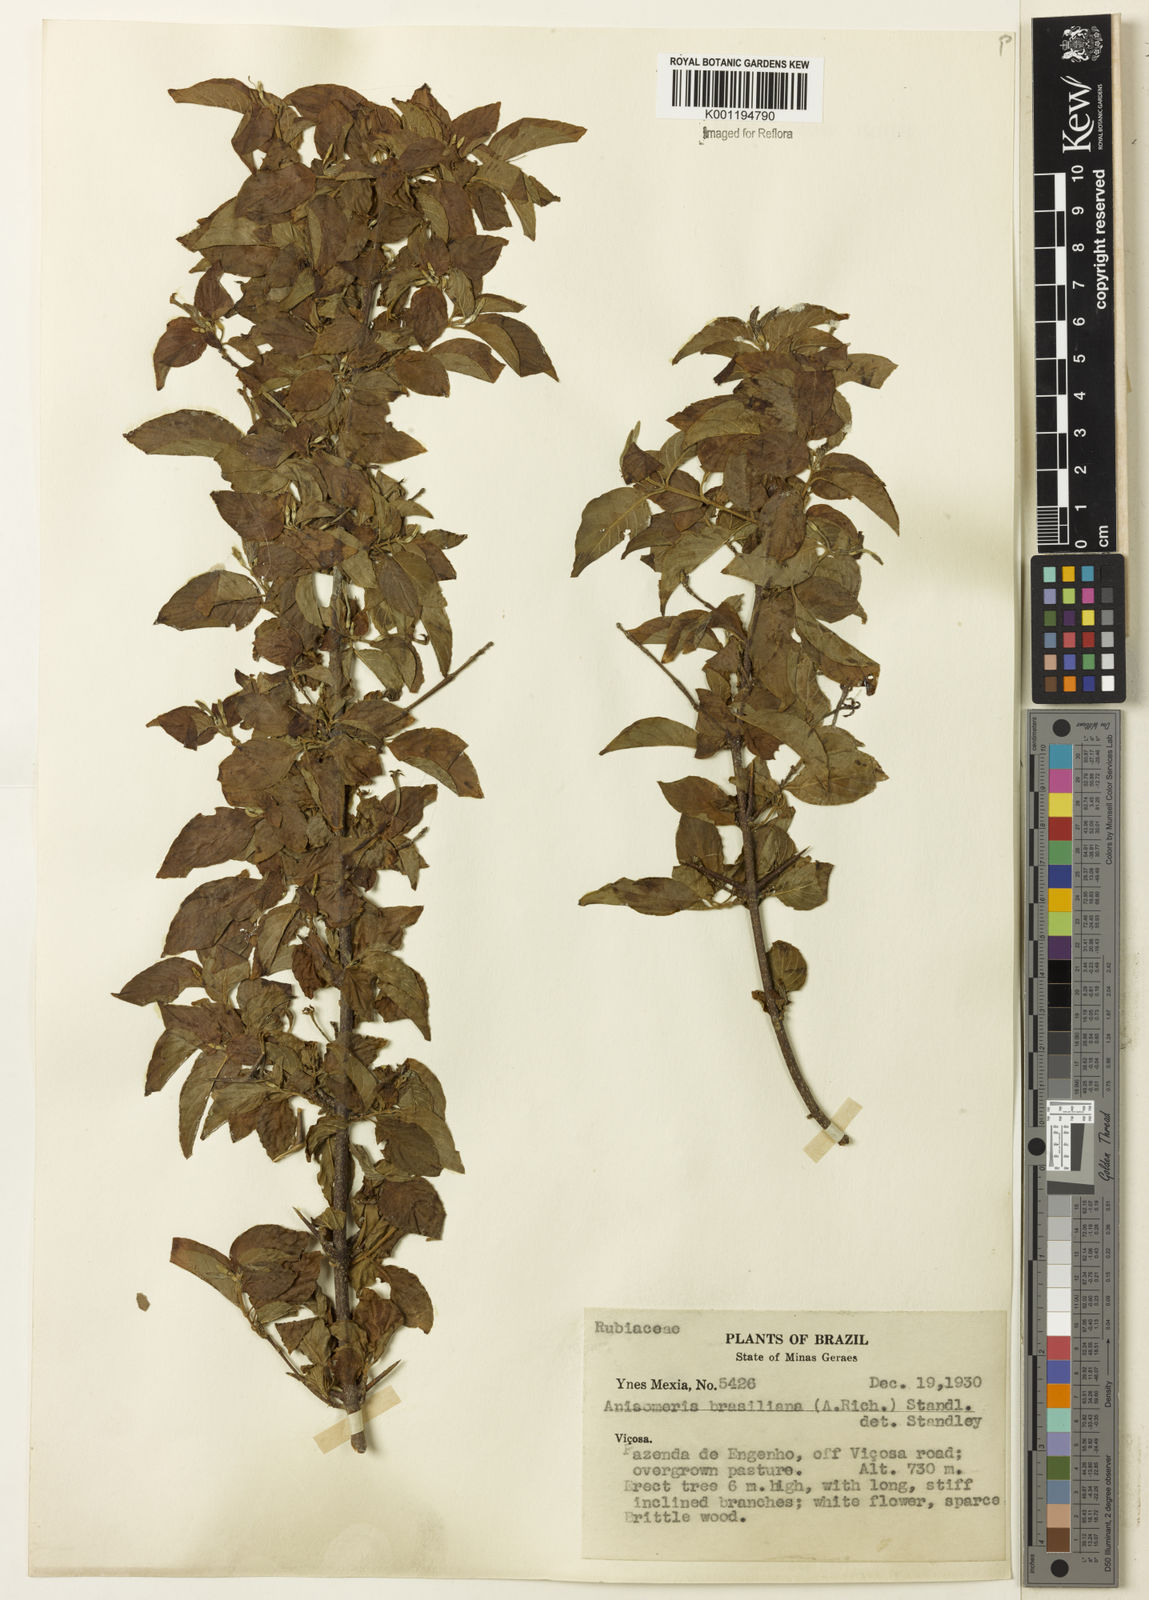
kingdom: Plantae
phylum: Tracheophyta
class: Magnoliopsida
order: Gentianales
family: Rubiaceae
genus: Chomelia
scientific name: Chomelia brasiliana
